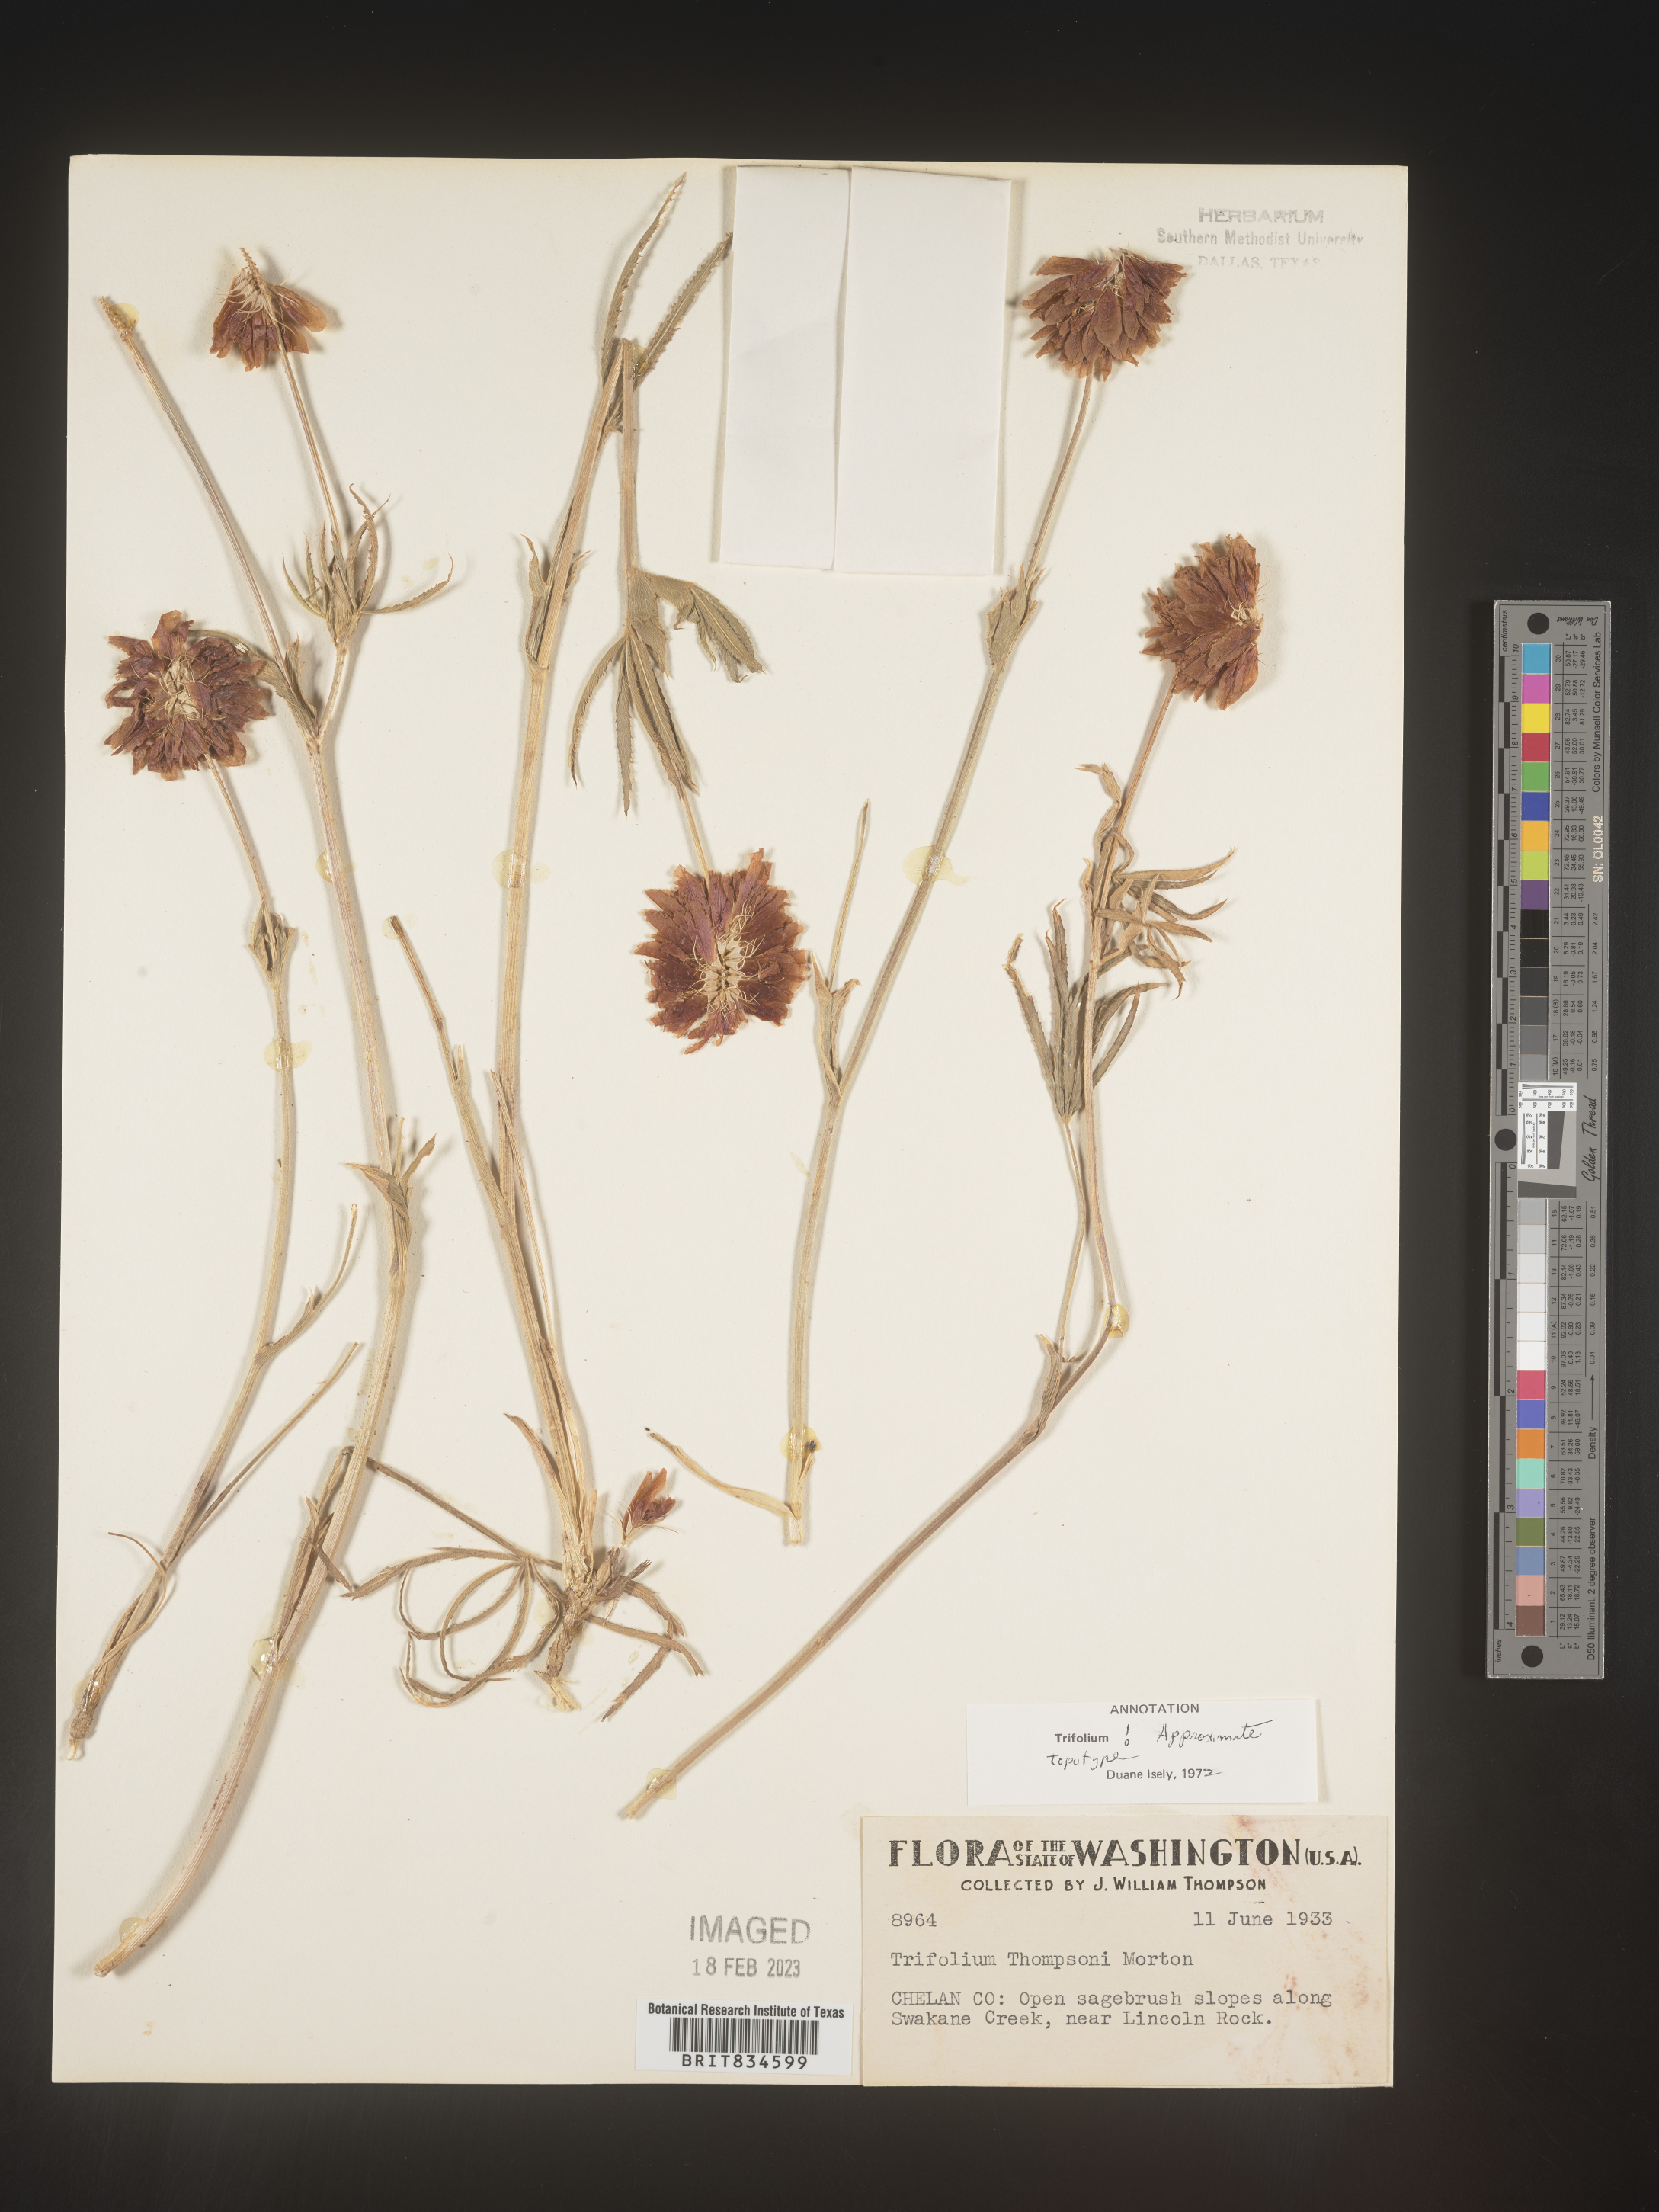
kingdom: Plantae
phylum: Tracheophyta
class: Magnoliopsida
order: Fabales
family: Fabaceae
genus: Trifolium
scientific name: Trifolium
